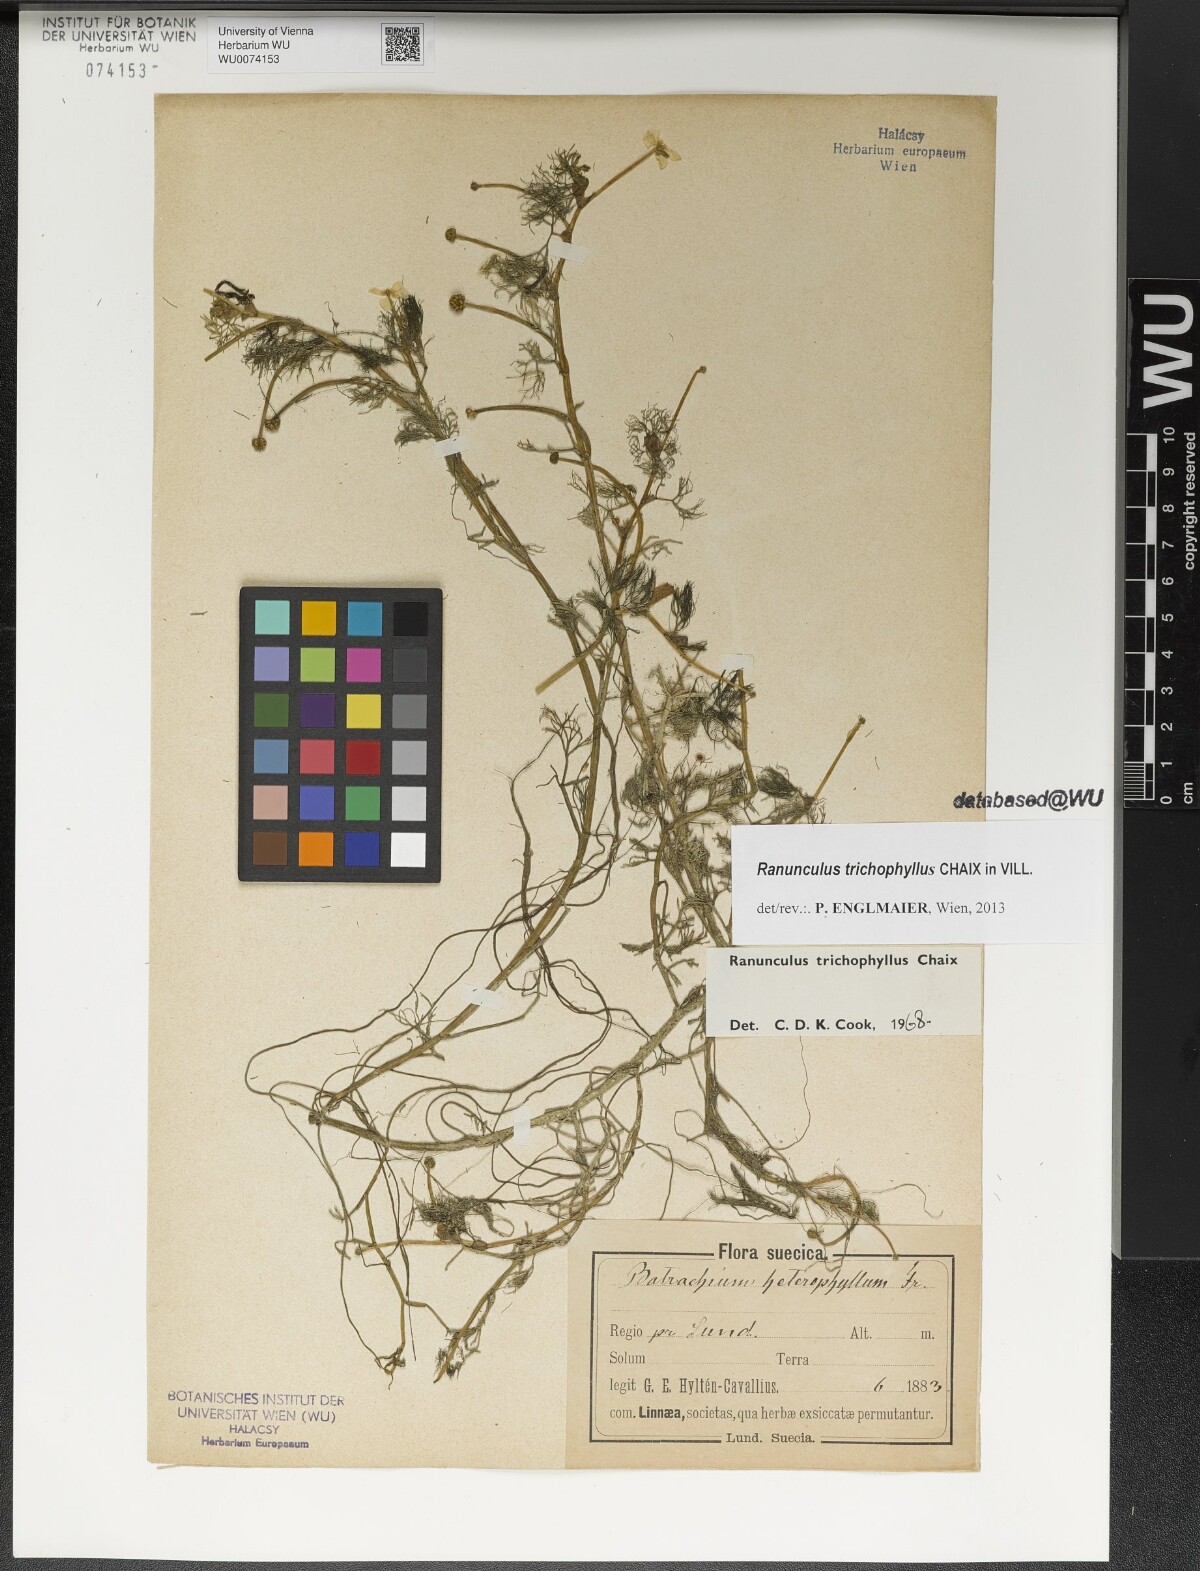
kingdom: Plantae
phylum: Tracheophyta
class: Magnoliopsida
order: Ranunculales
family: Ranunculaceae
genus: Ranunculus
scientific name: Ranunculus trichophyllus
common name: Thread-leaved water-crowfoot
